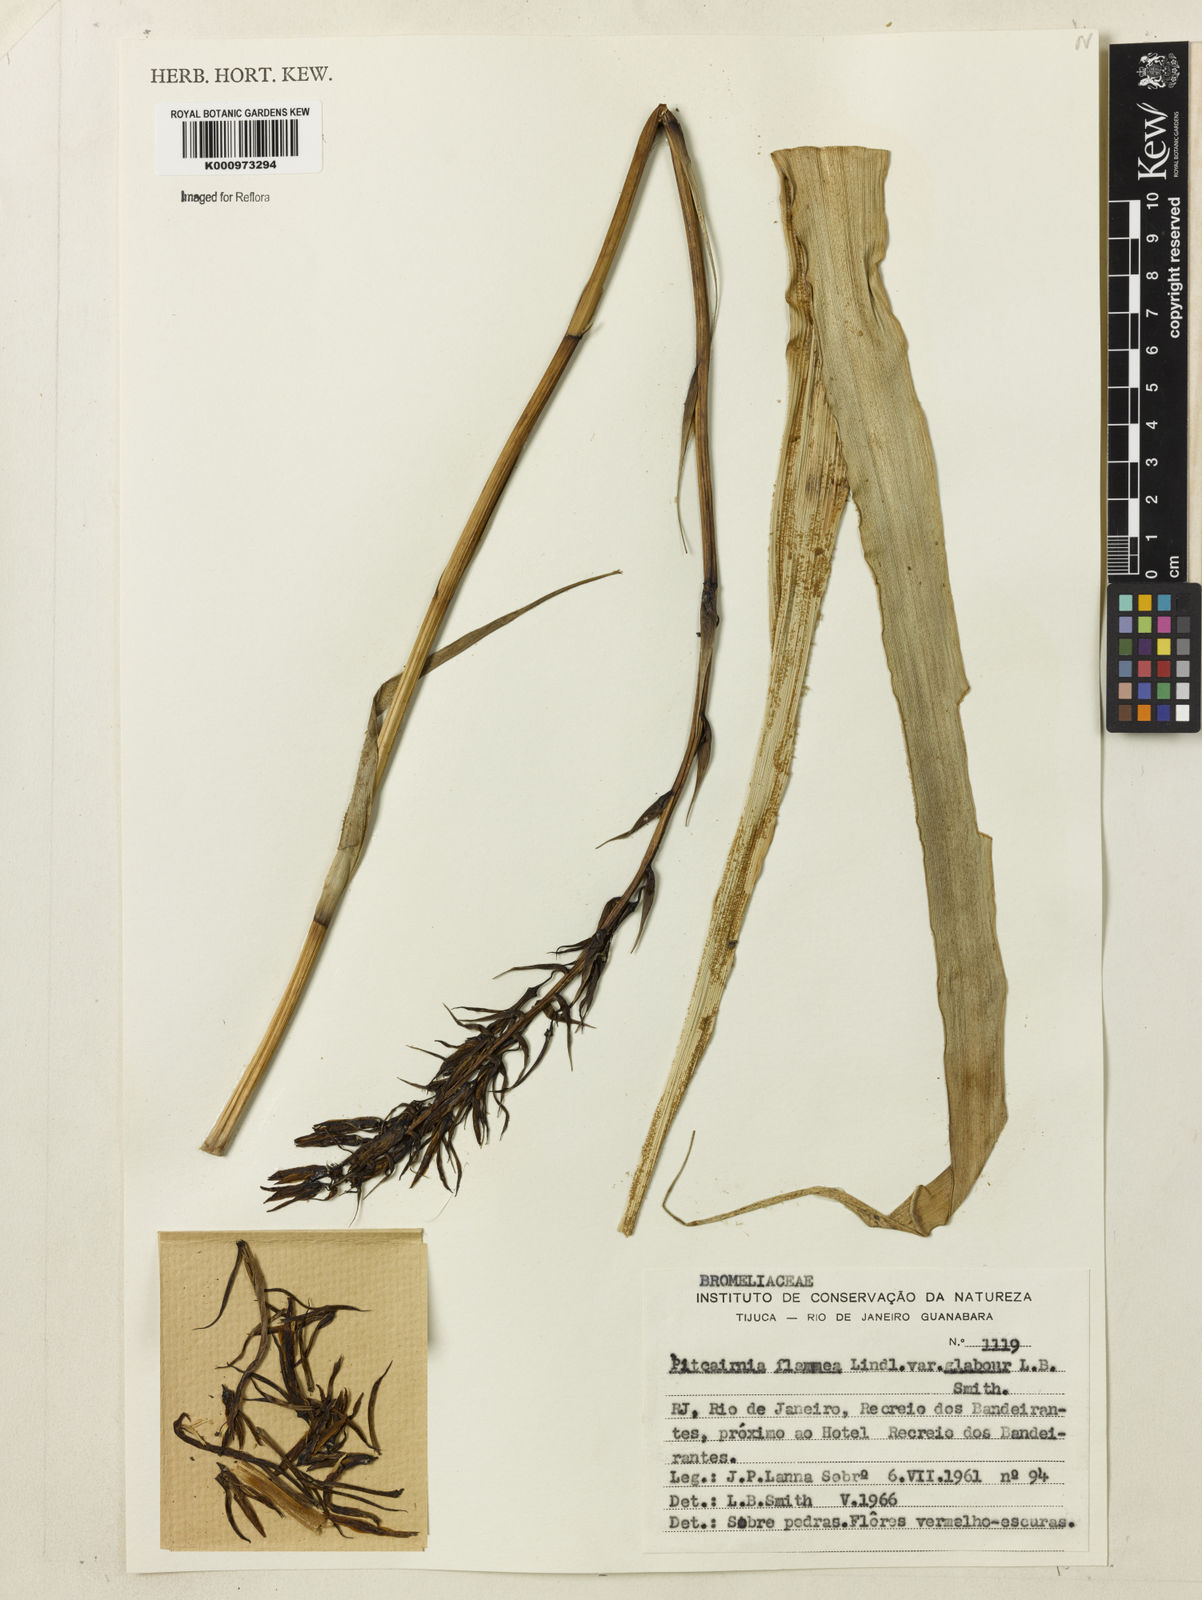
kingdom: Plantae
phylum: Tracheophyta
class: Liliopsida
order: Poales
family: Bromeliaceae
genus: Pitcairnia
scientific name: Pitcairnia flammea
